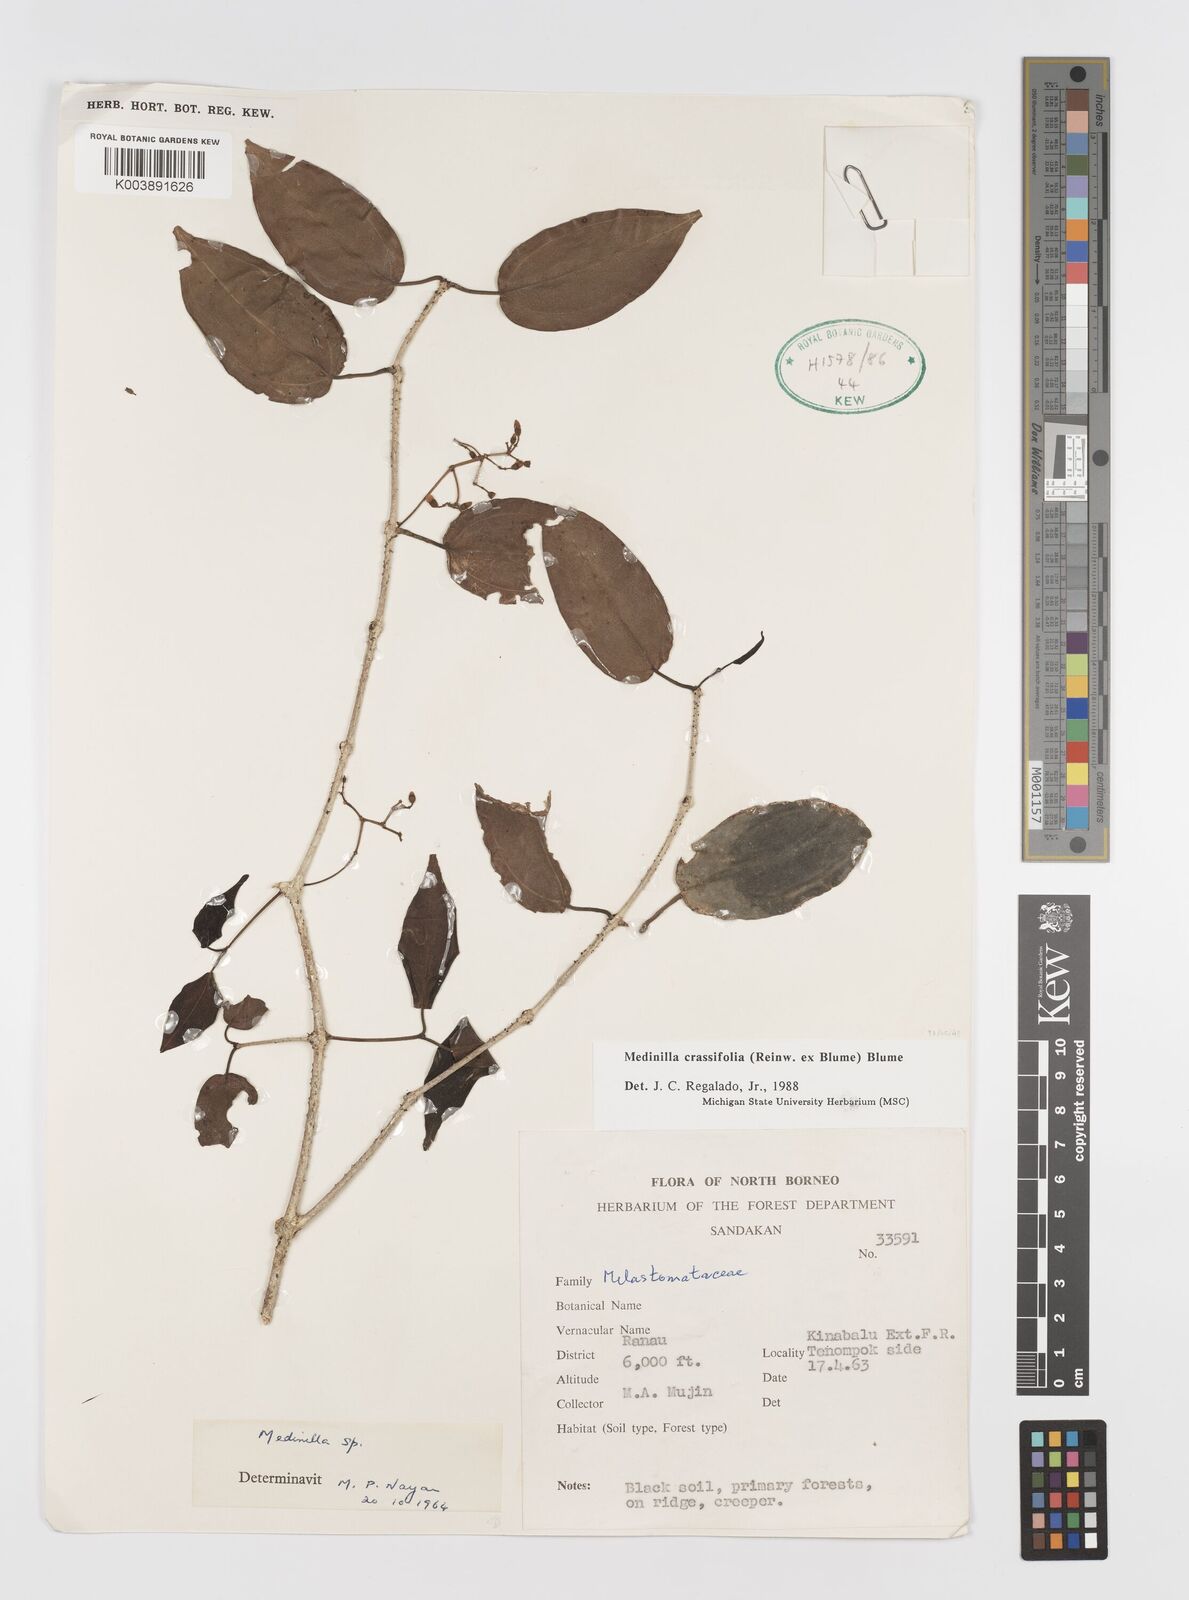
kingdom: Plantae
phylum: Tracheophyta
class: Magnoliopsida
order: Myrtales
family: Melastomataceae
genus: Medinilla
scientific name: Medinilla crassifolia
